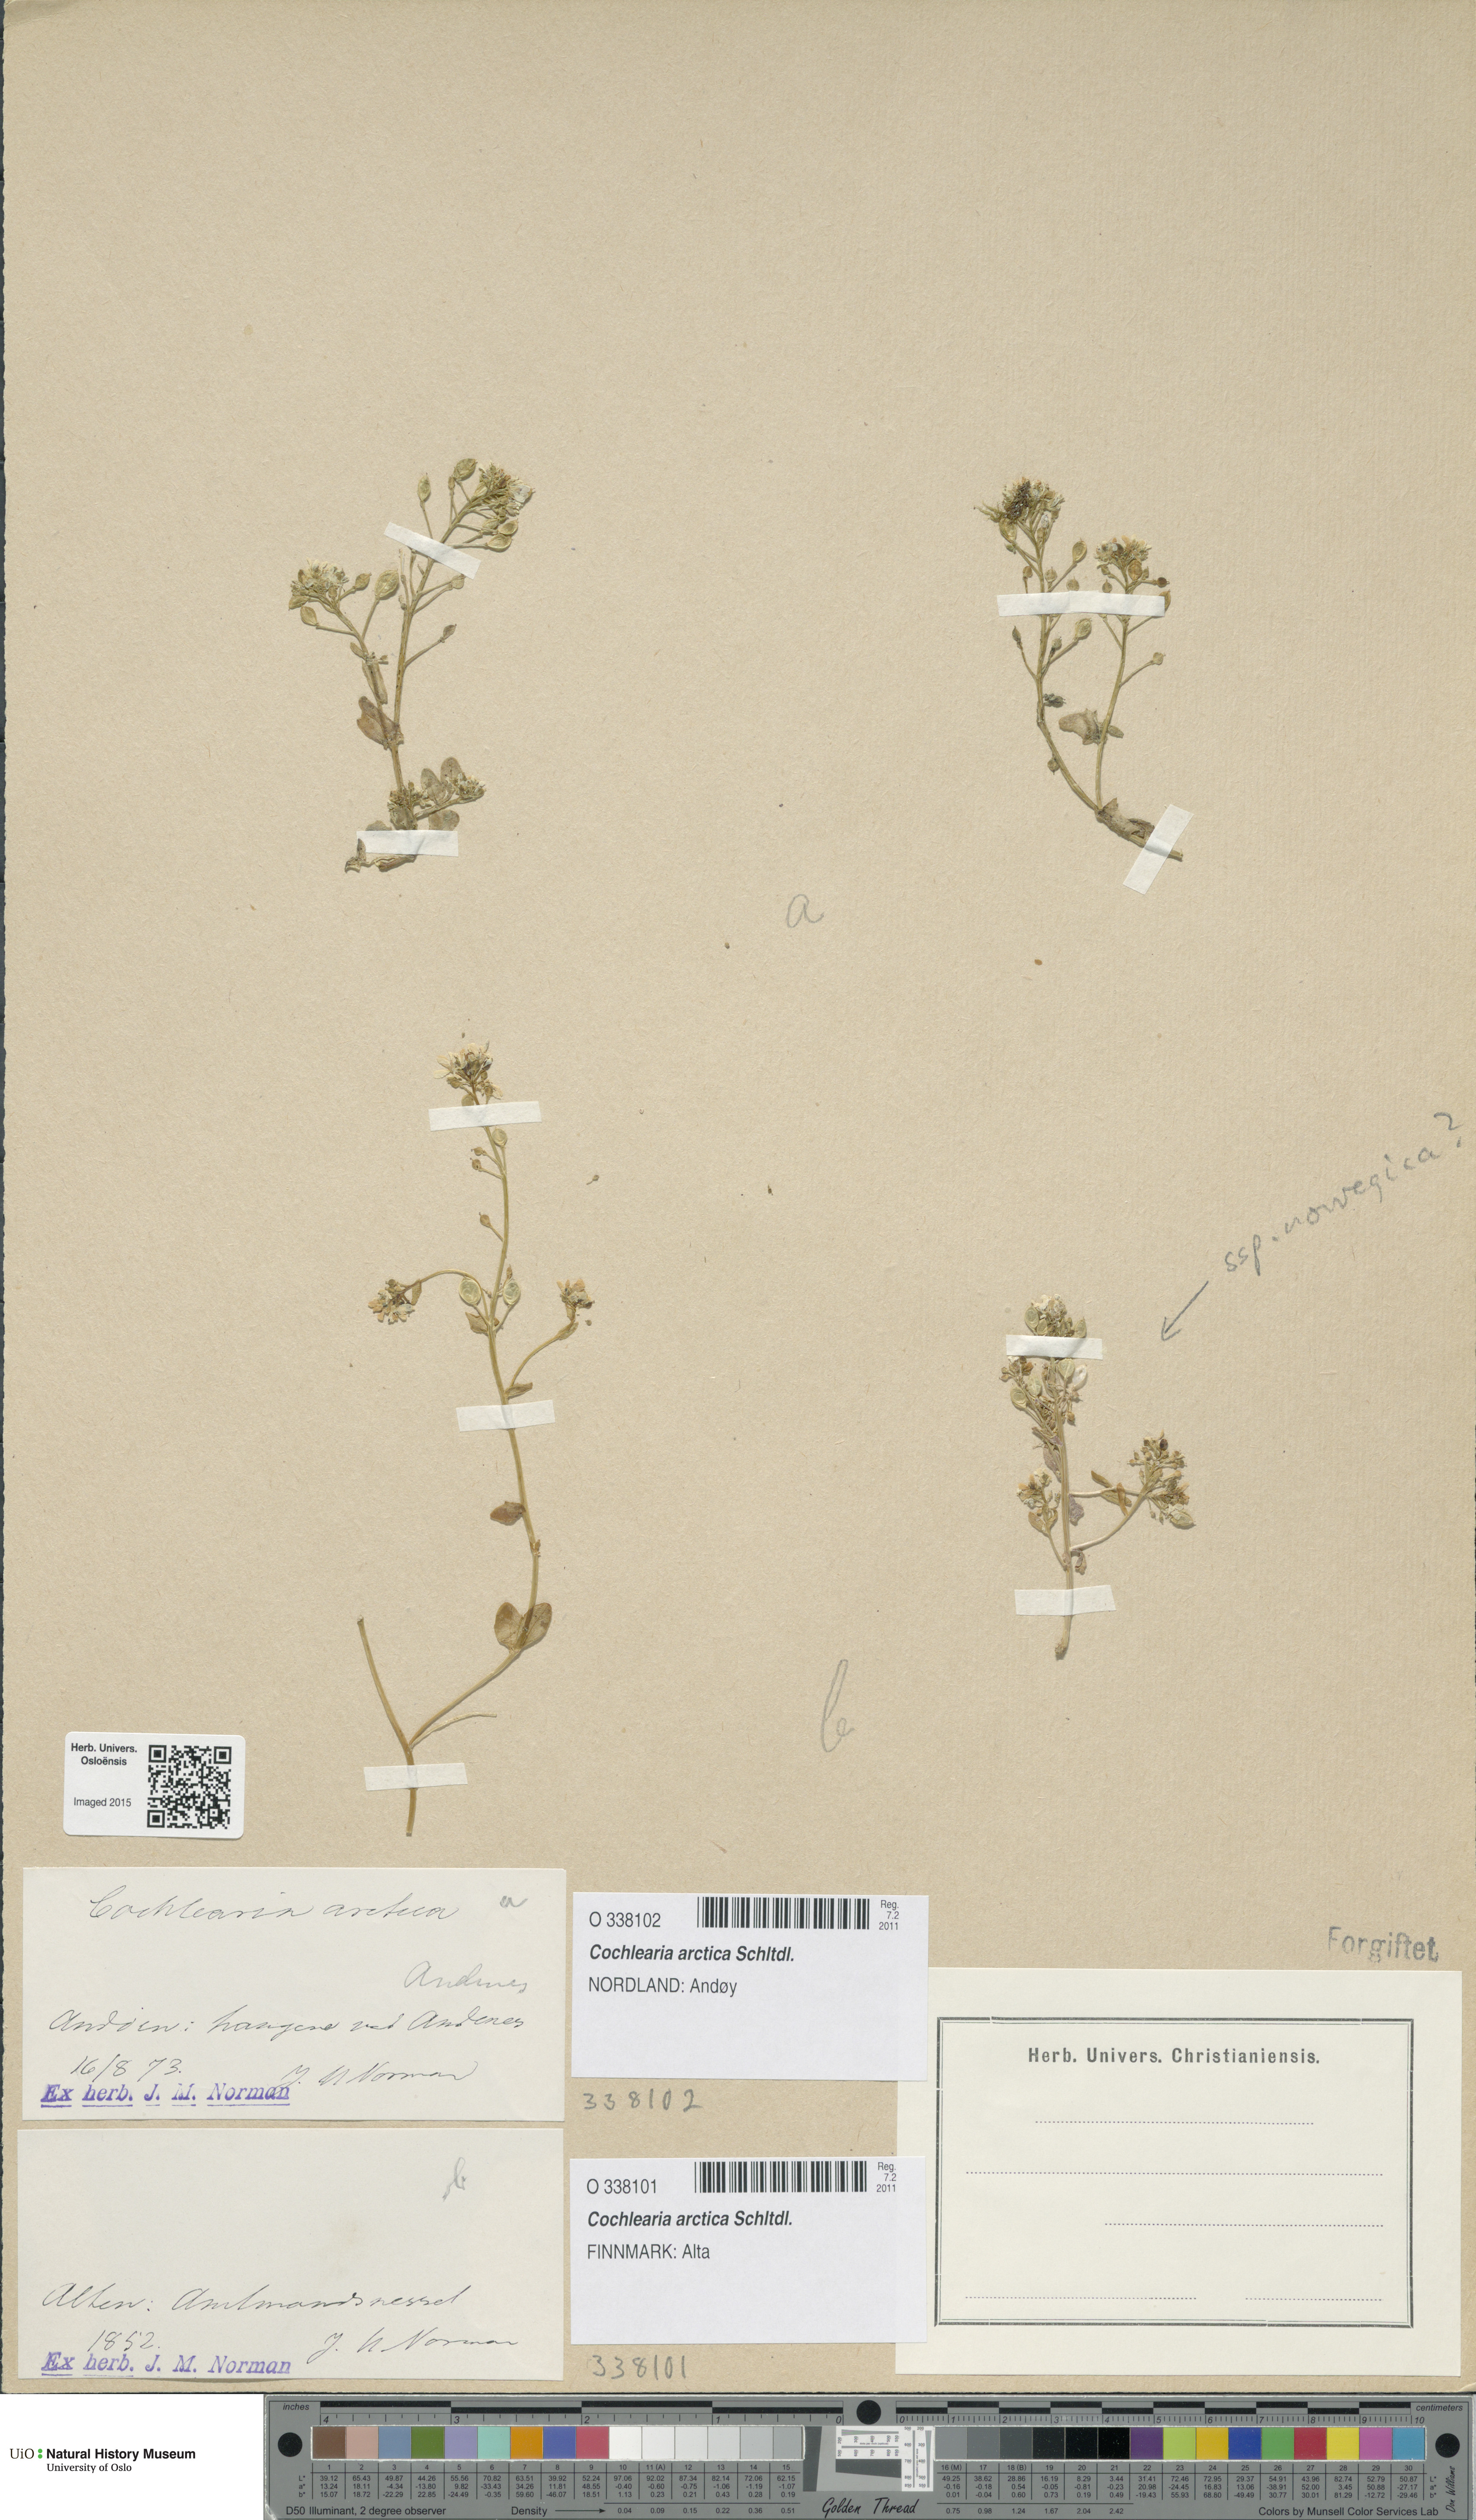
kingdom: Plantae
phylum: Tracheophyta
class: Magnoliopsida
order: Brassicales
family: Brassicaceae
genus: Cochlearia
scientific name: Cochlearia arctica
